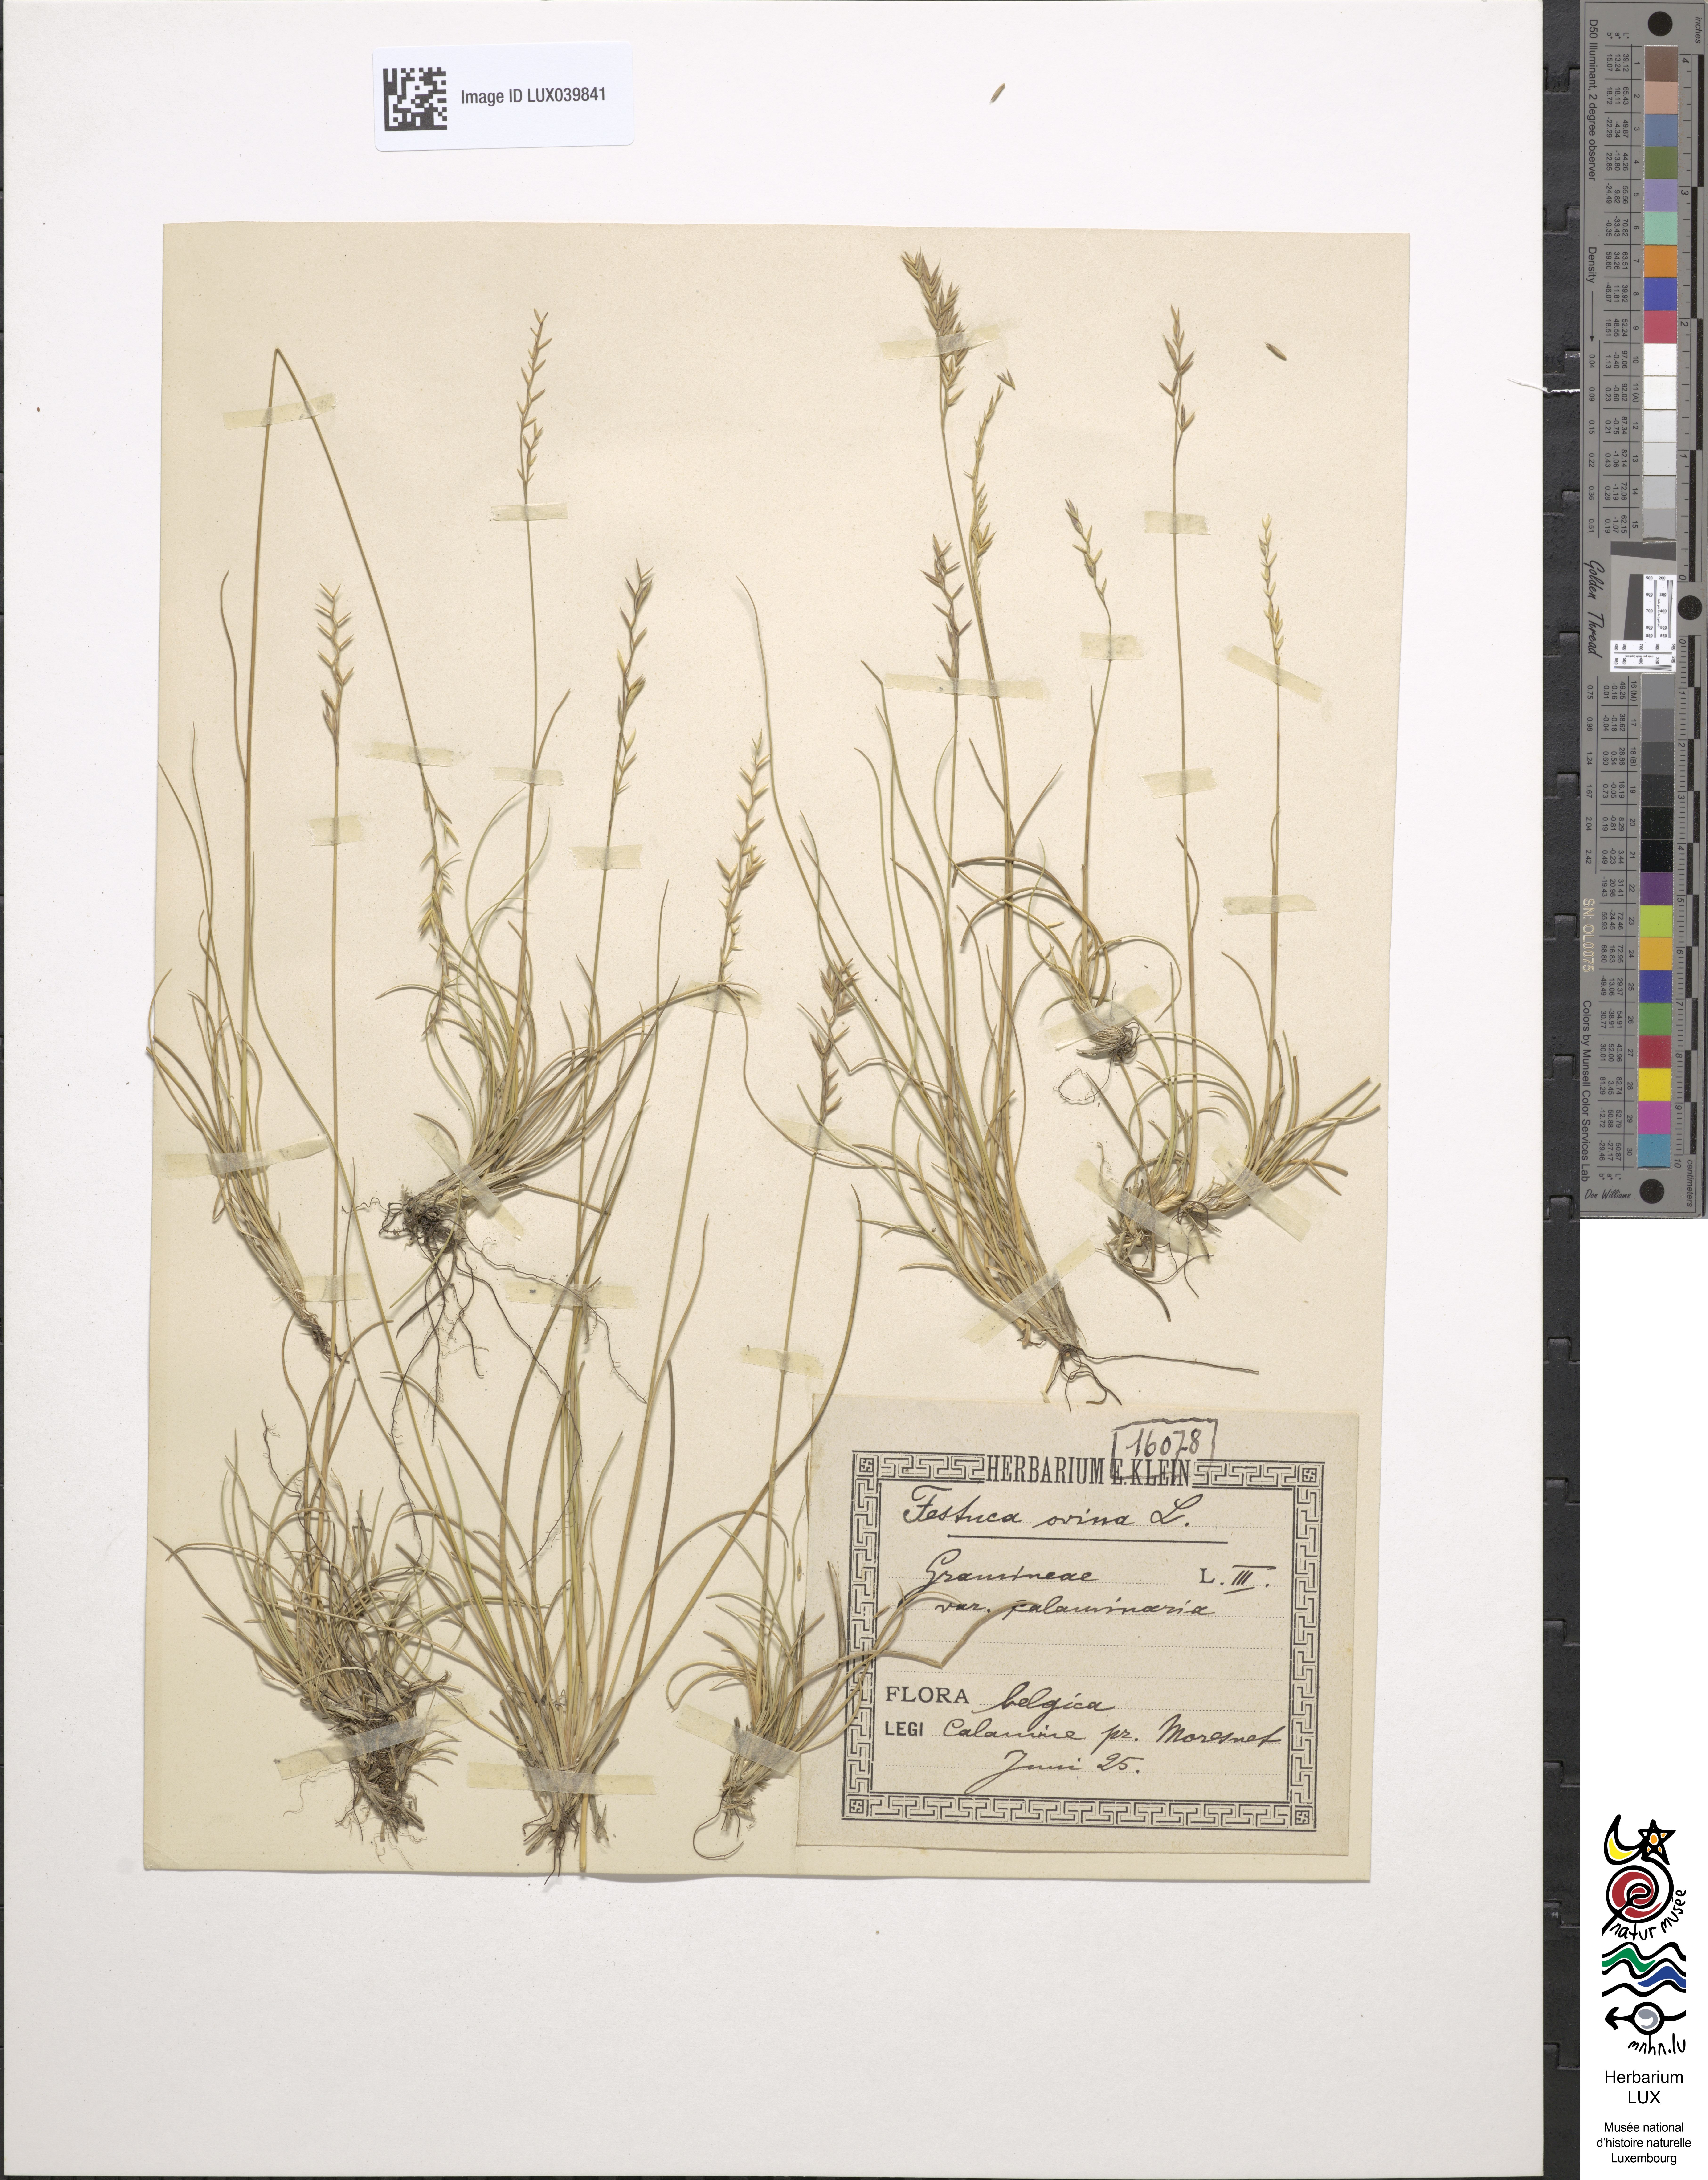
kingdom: Plantae
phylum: Tracheophyta
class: Liliopsida
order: Poales
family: Poaceae
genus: Festuca
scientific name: Festuca ovina
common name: Sheep fescue
